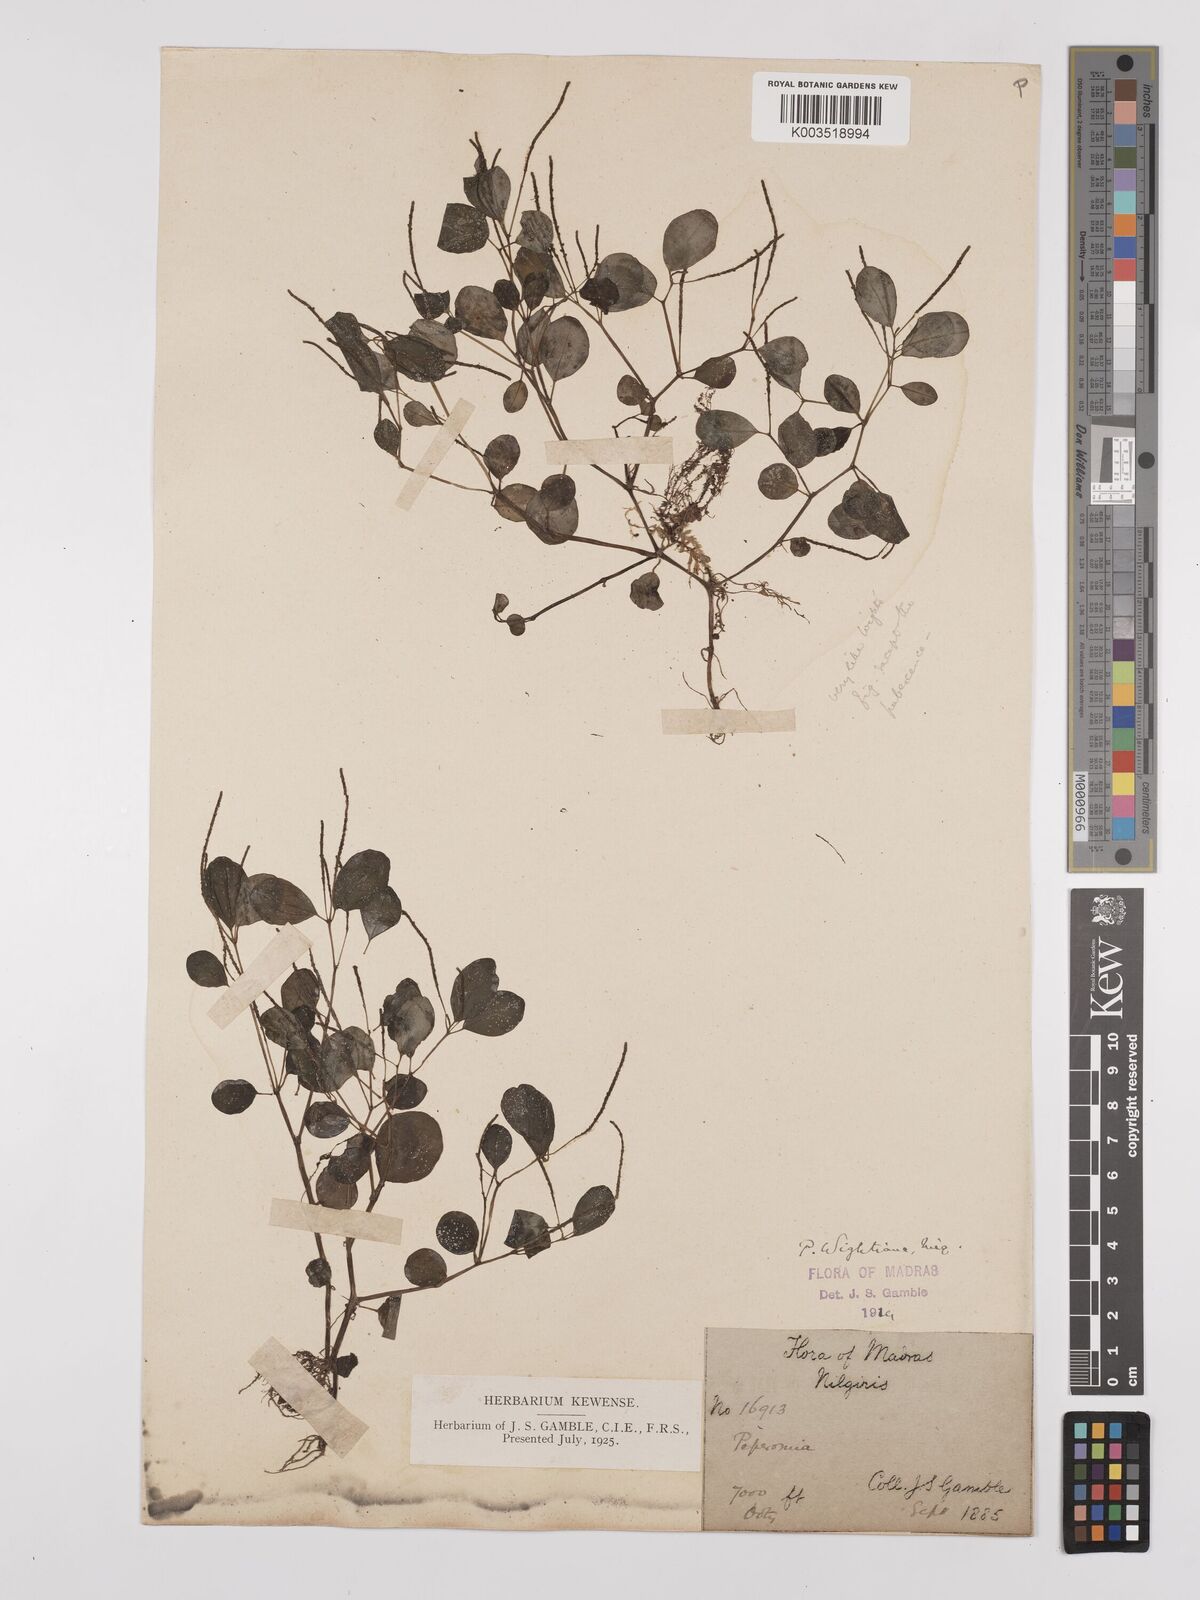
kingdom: Plantae
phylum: Tracheophyta
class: Magnoliopsida
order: Piperales
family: Piperaceae
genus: Peperomia
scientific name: Peperomia wightiana
